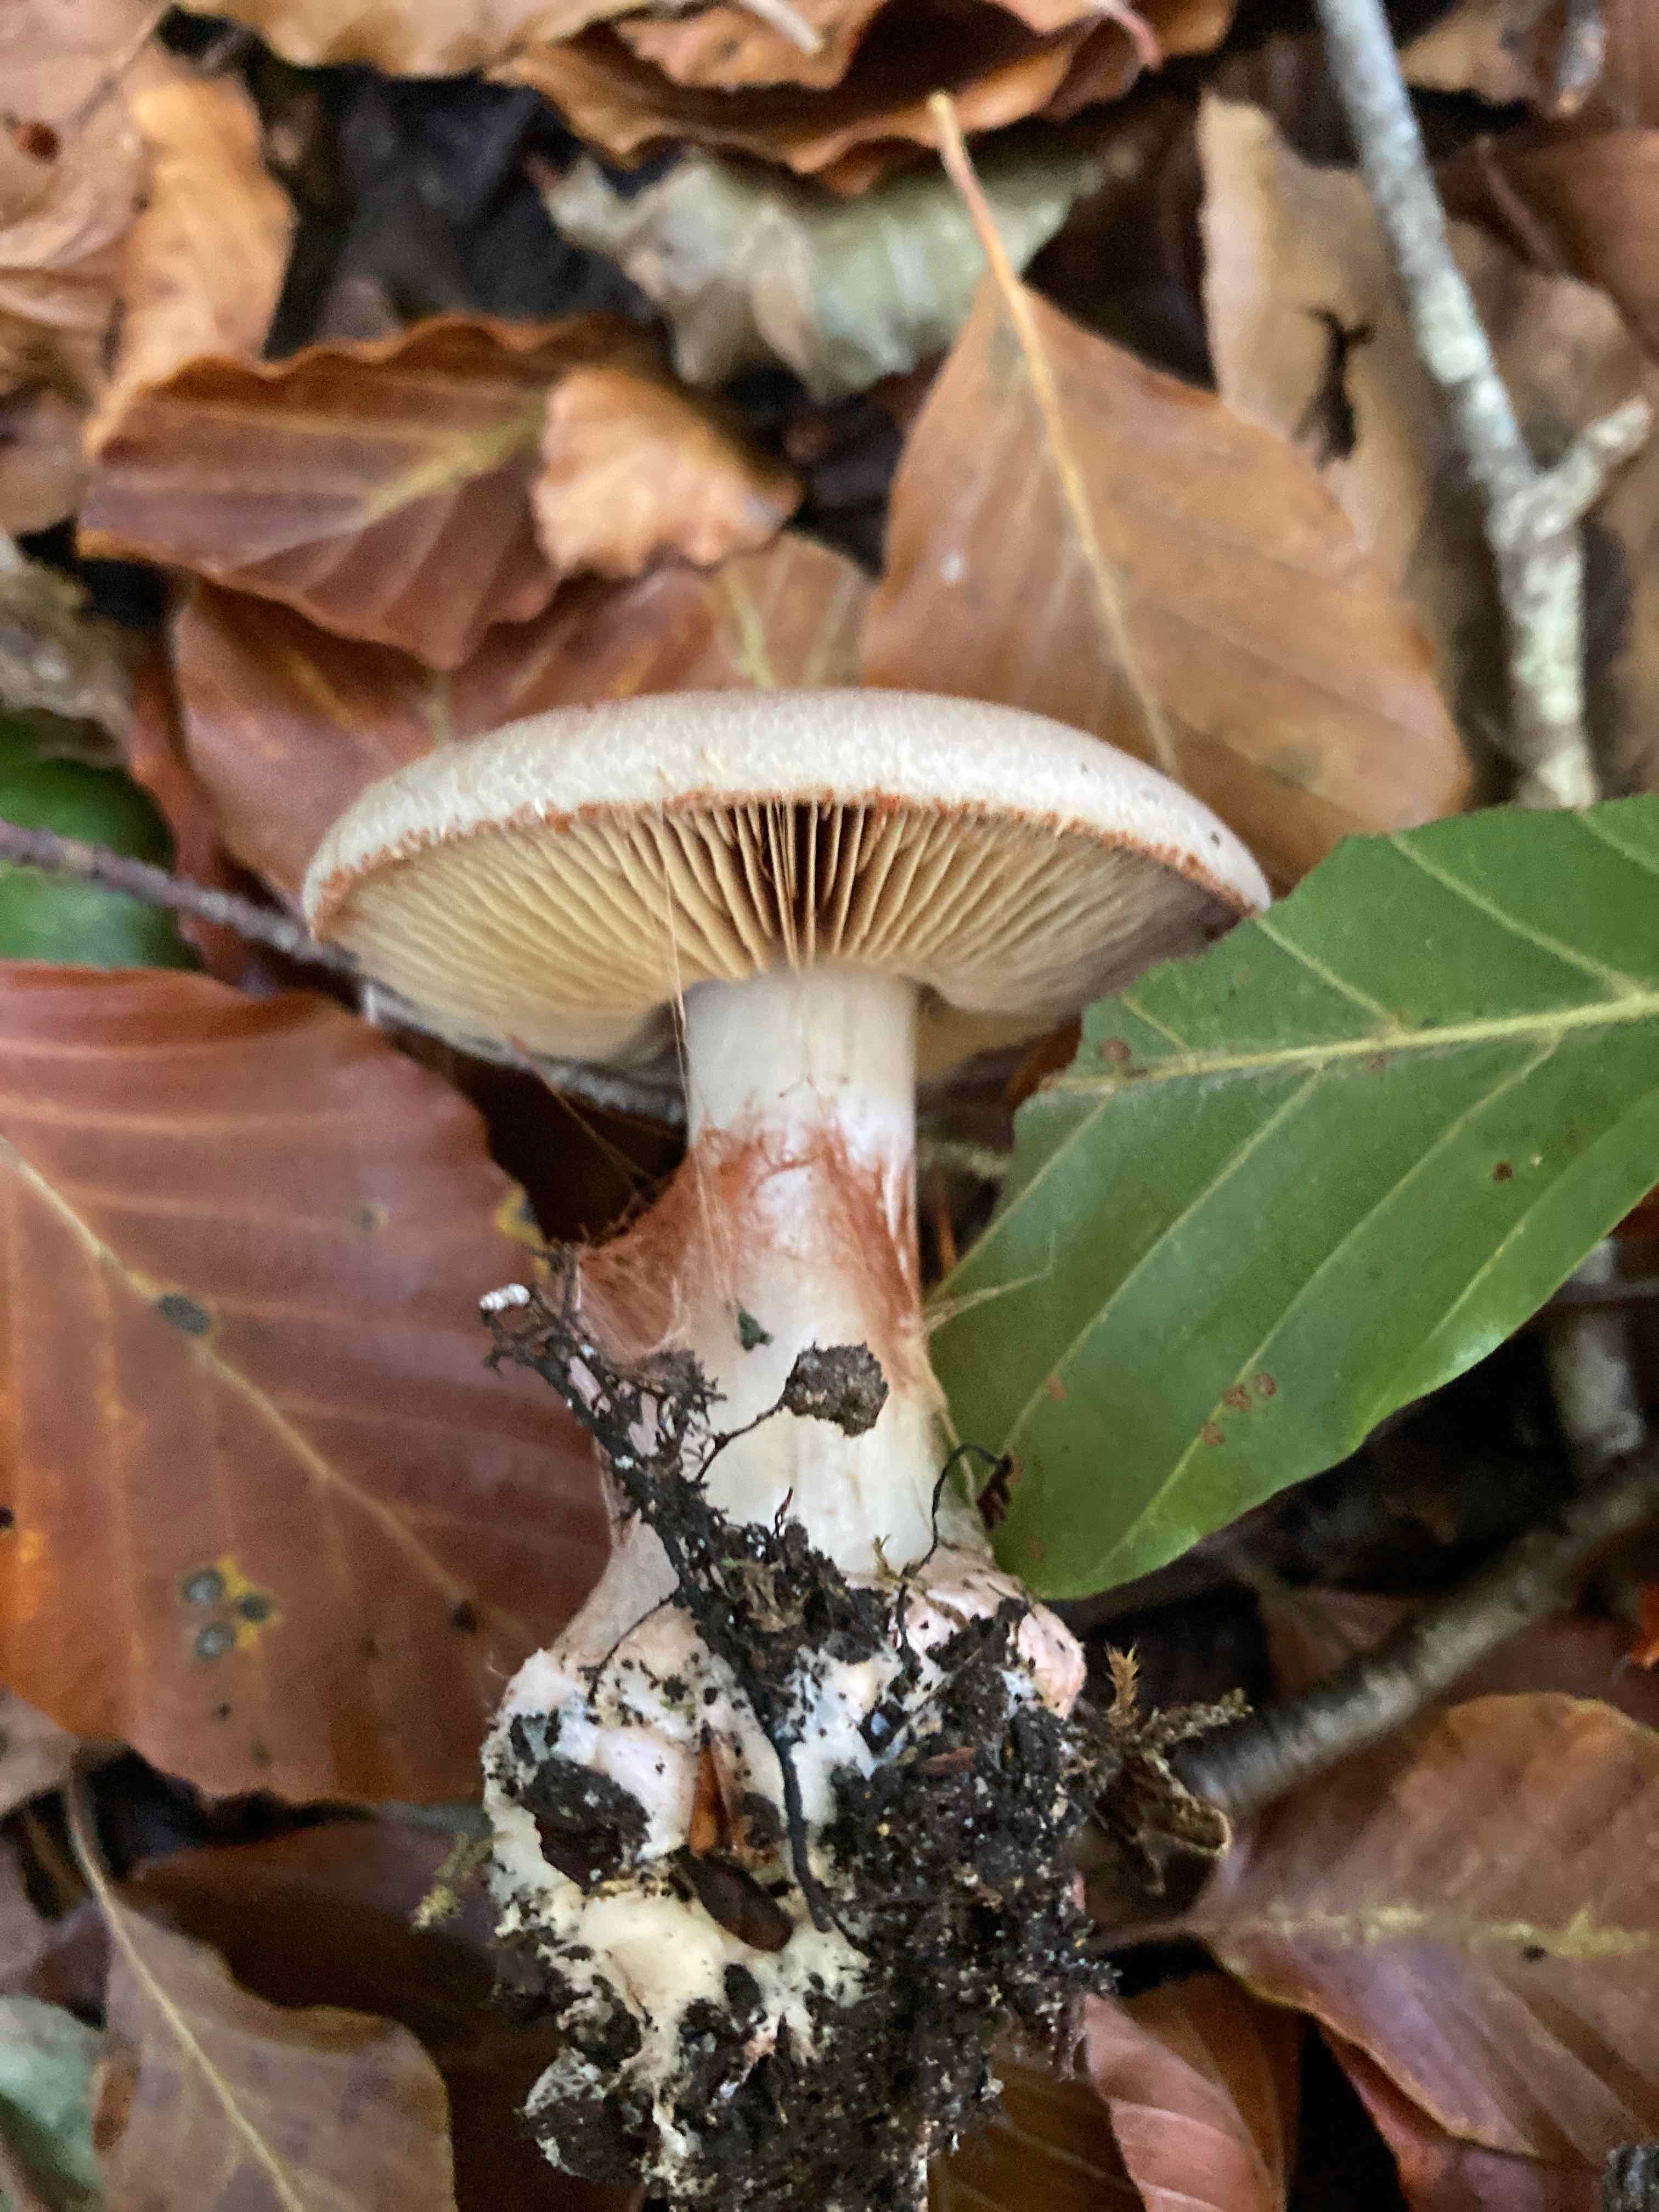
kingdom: Fungi
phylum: Basidiomycota
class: Agaricomycetes
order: Agaricales
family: Cortinariaceae
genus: Calonarius
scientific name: Calonarius rufo-olivaceus
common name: firefarvet slørhat
